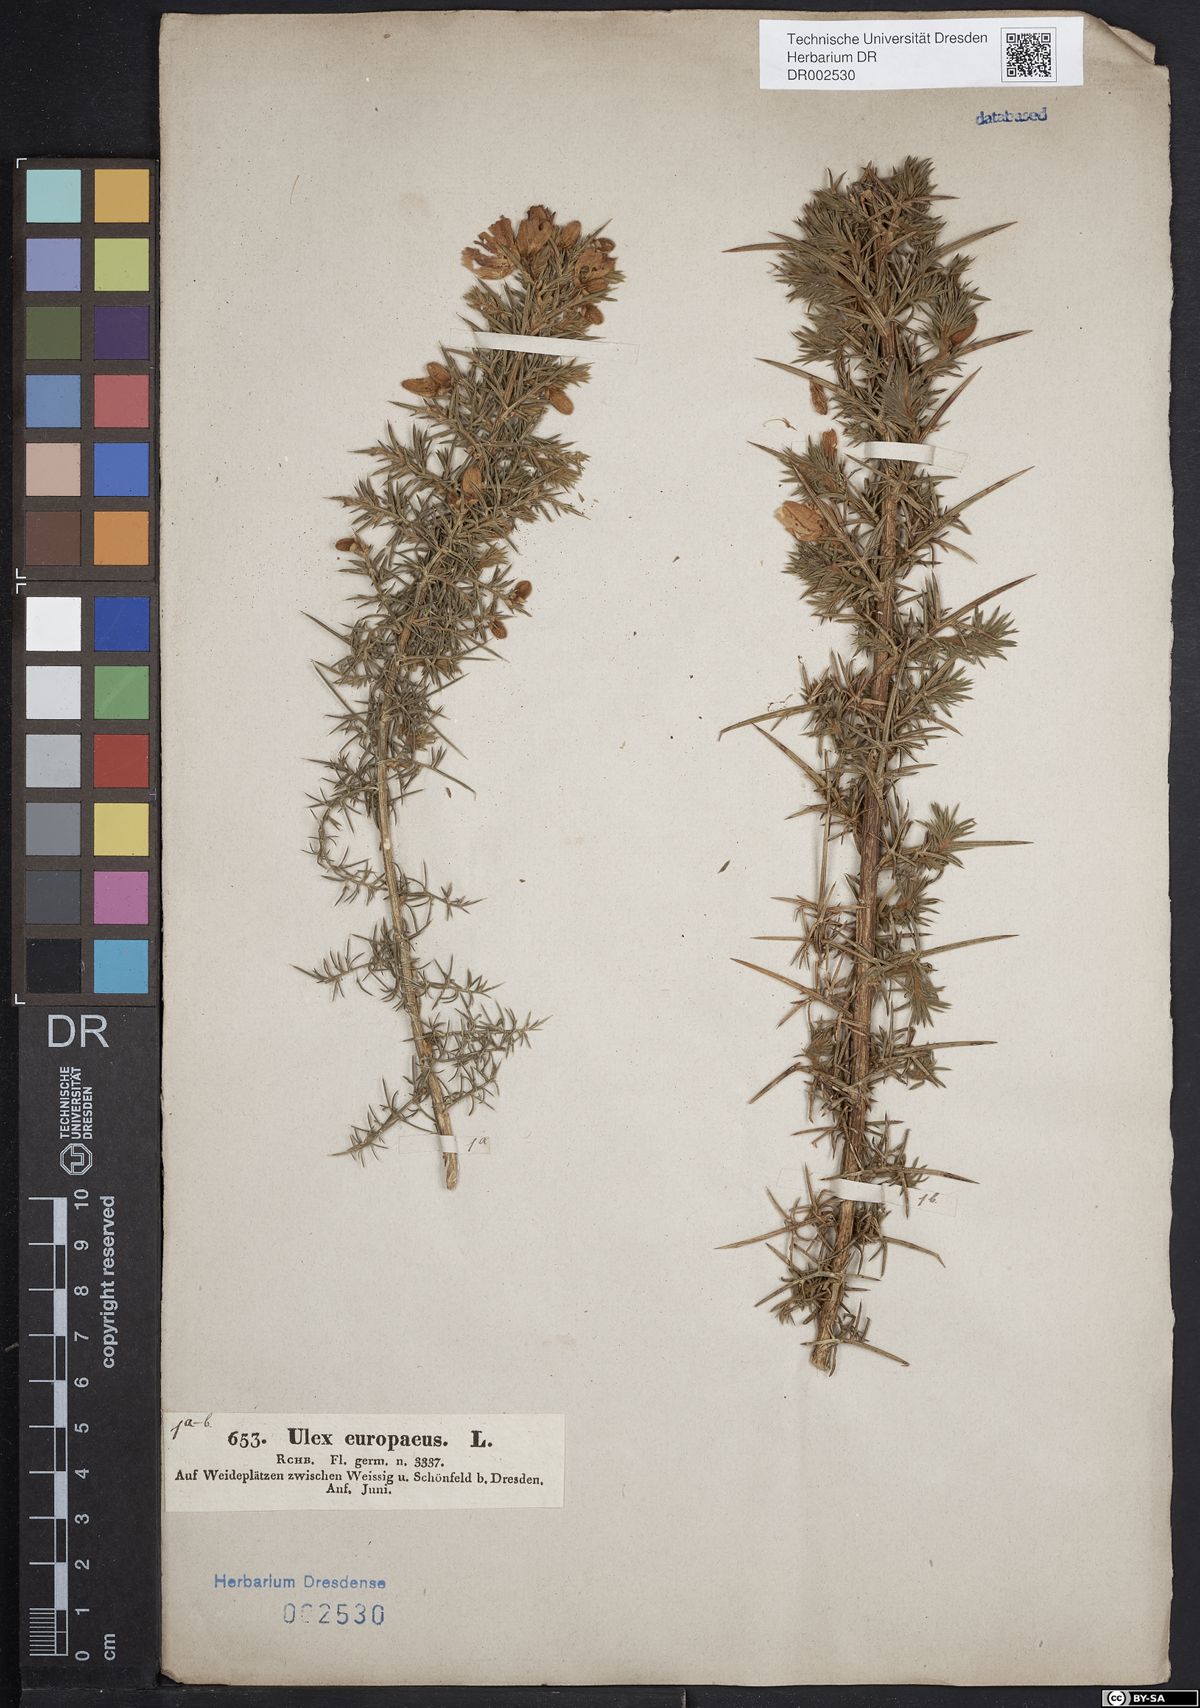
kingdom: Plantae
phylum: Tracheophyta
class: Magnoliopsida
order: Fabales
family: Fabaceae
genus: Ulex
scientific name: Ulex europaeus
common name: Common gorse
